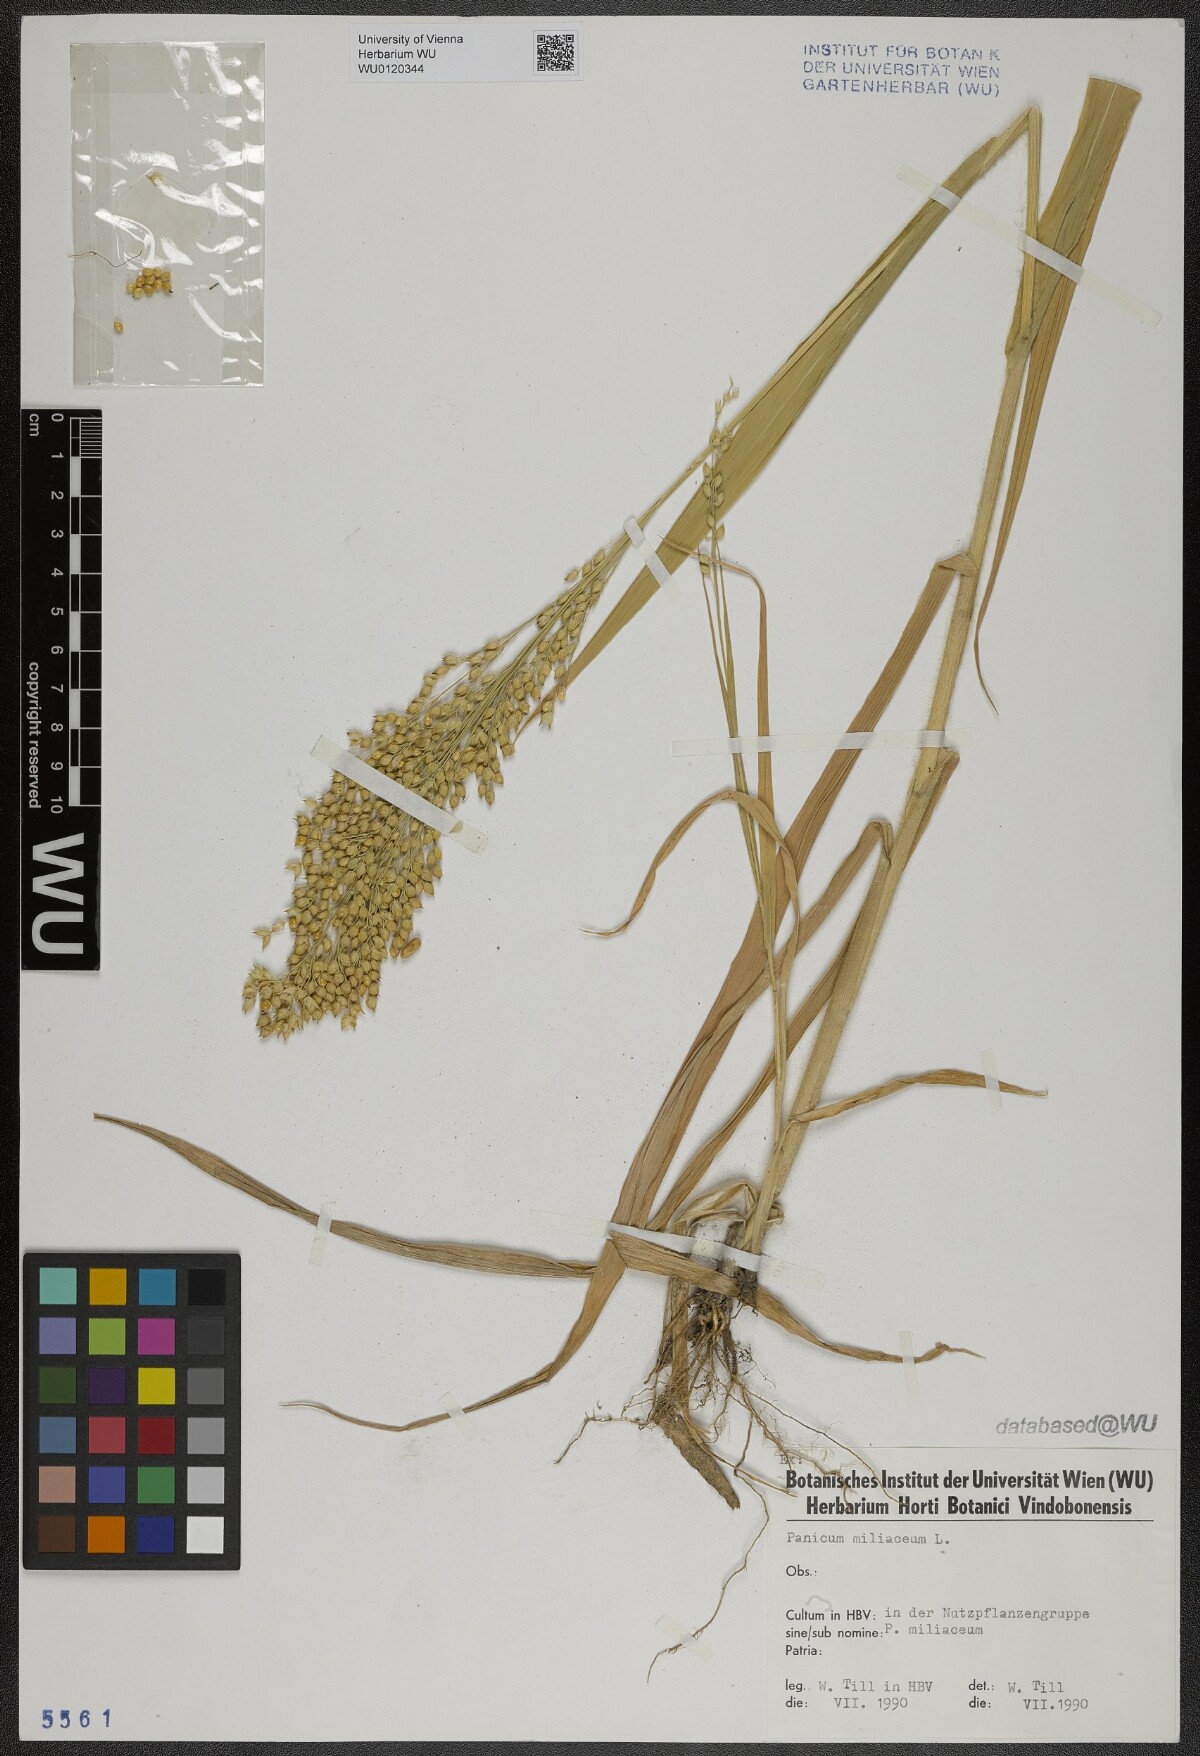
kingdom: Plantae
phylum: Tracheophyta
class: Liliopsida
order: Poales
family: Poaceae
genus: Panicum
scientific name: Panicum miliaceum
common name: Common millet
